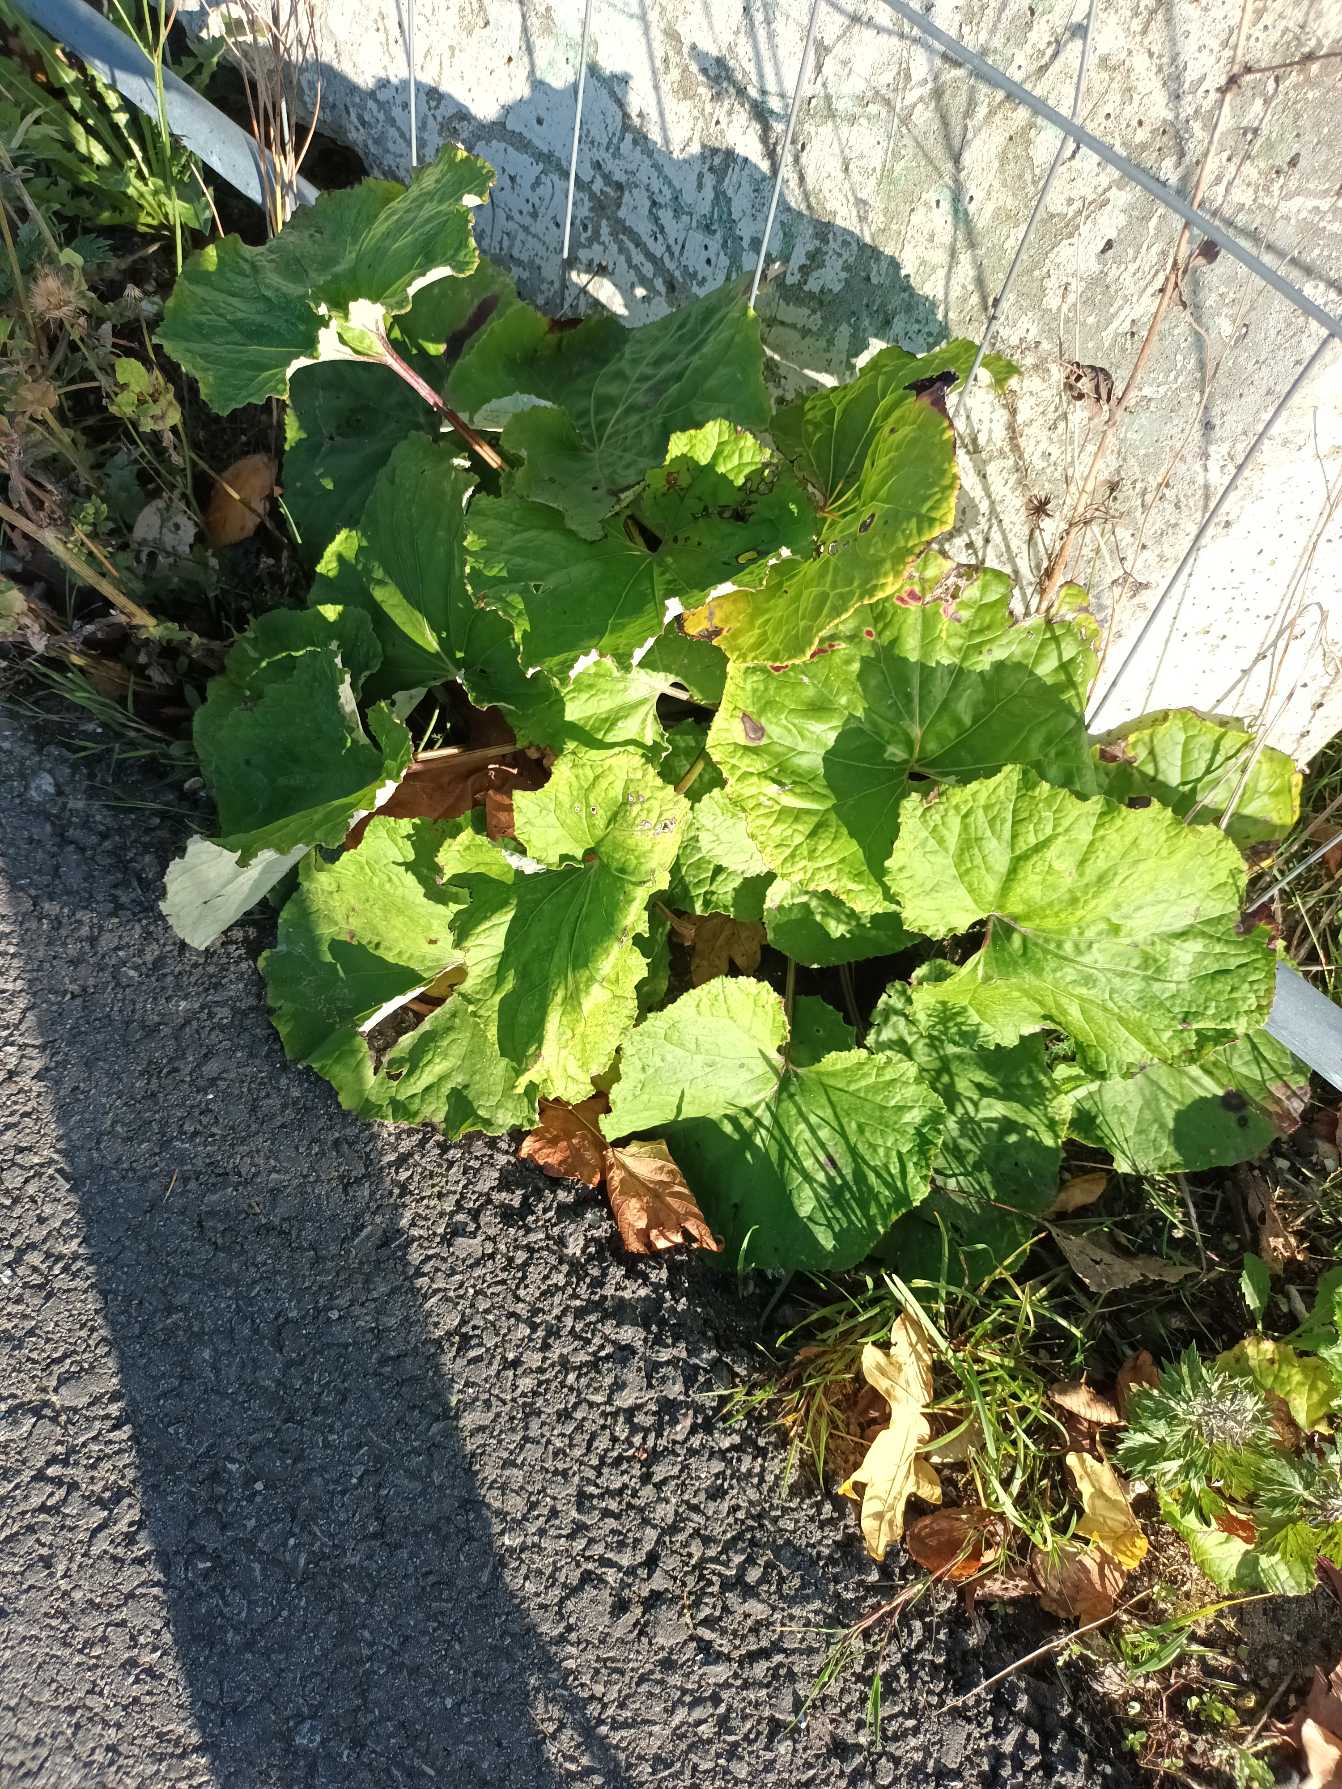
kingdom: Plantae
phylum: Tracheophyta
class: Magnoliopsida
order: Asterales
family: Asteraceae
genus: Tussilago
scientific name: Tussilago farfara
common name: Følfod
